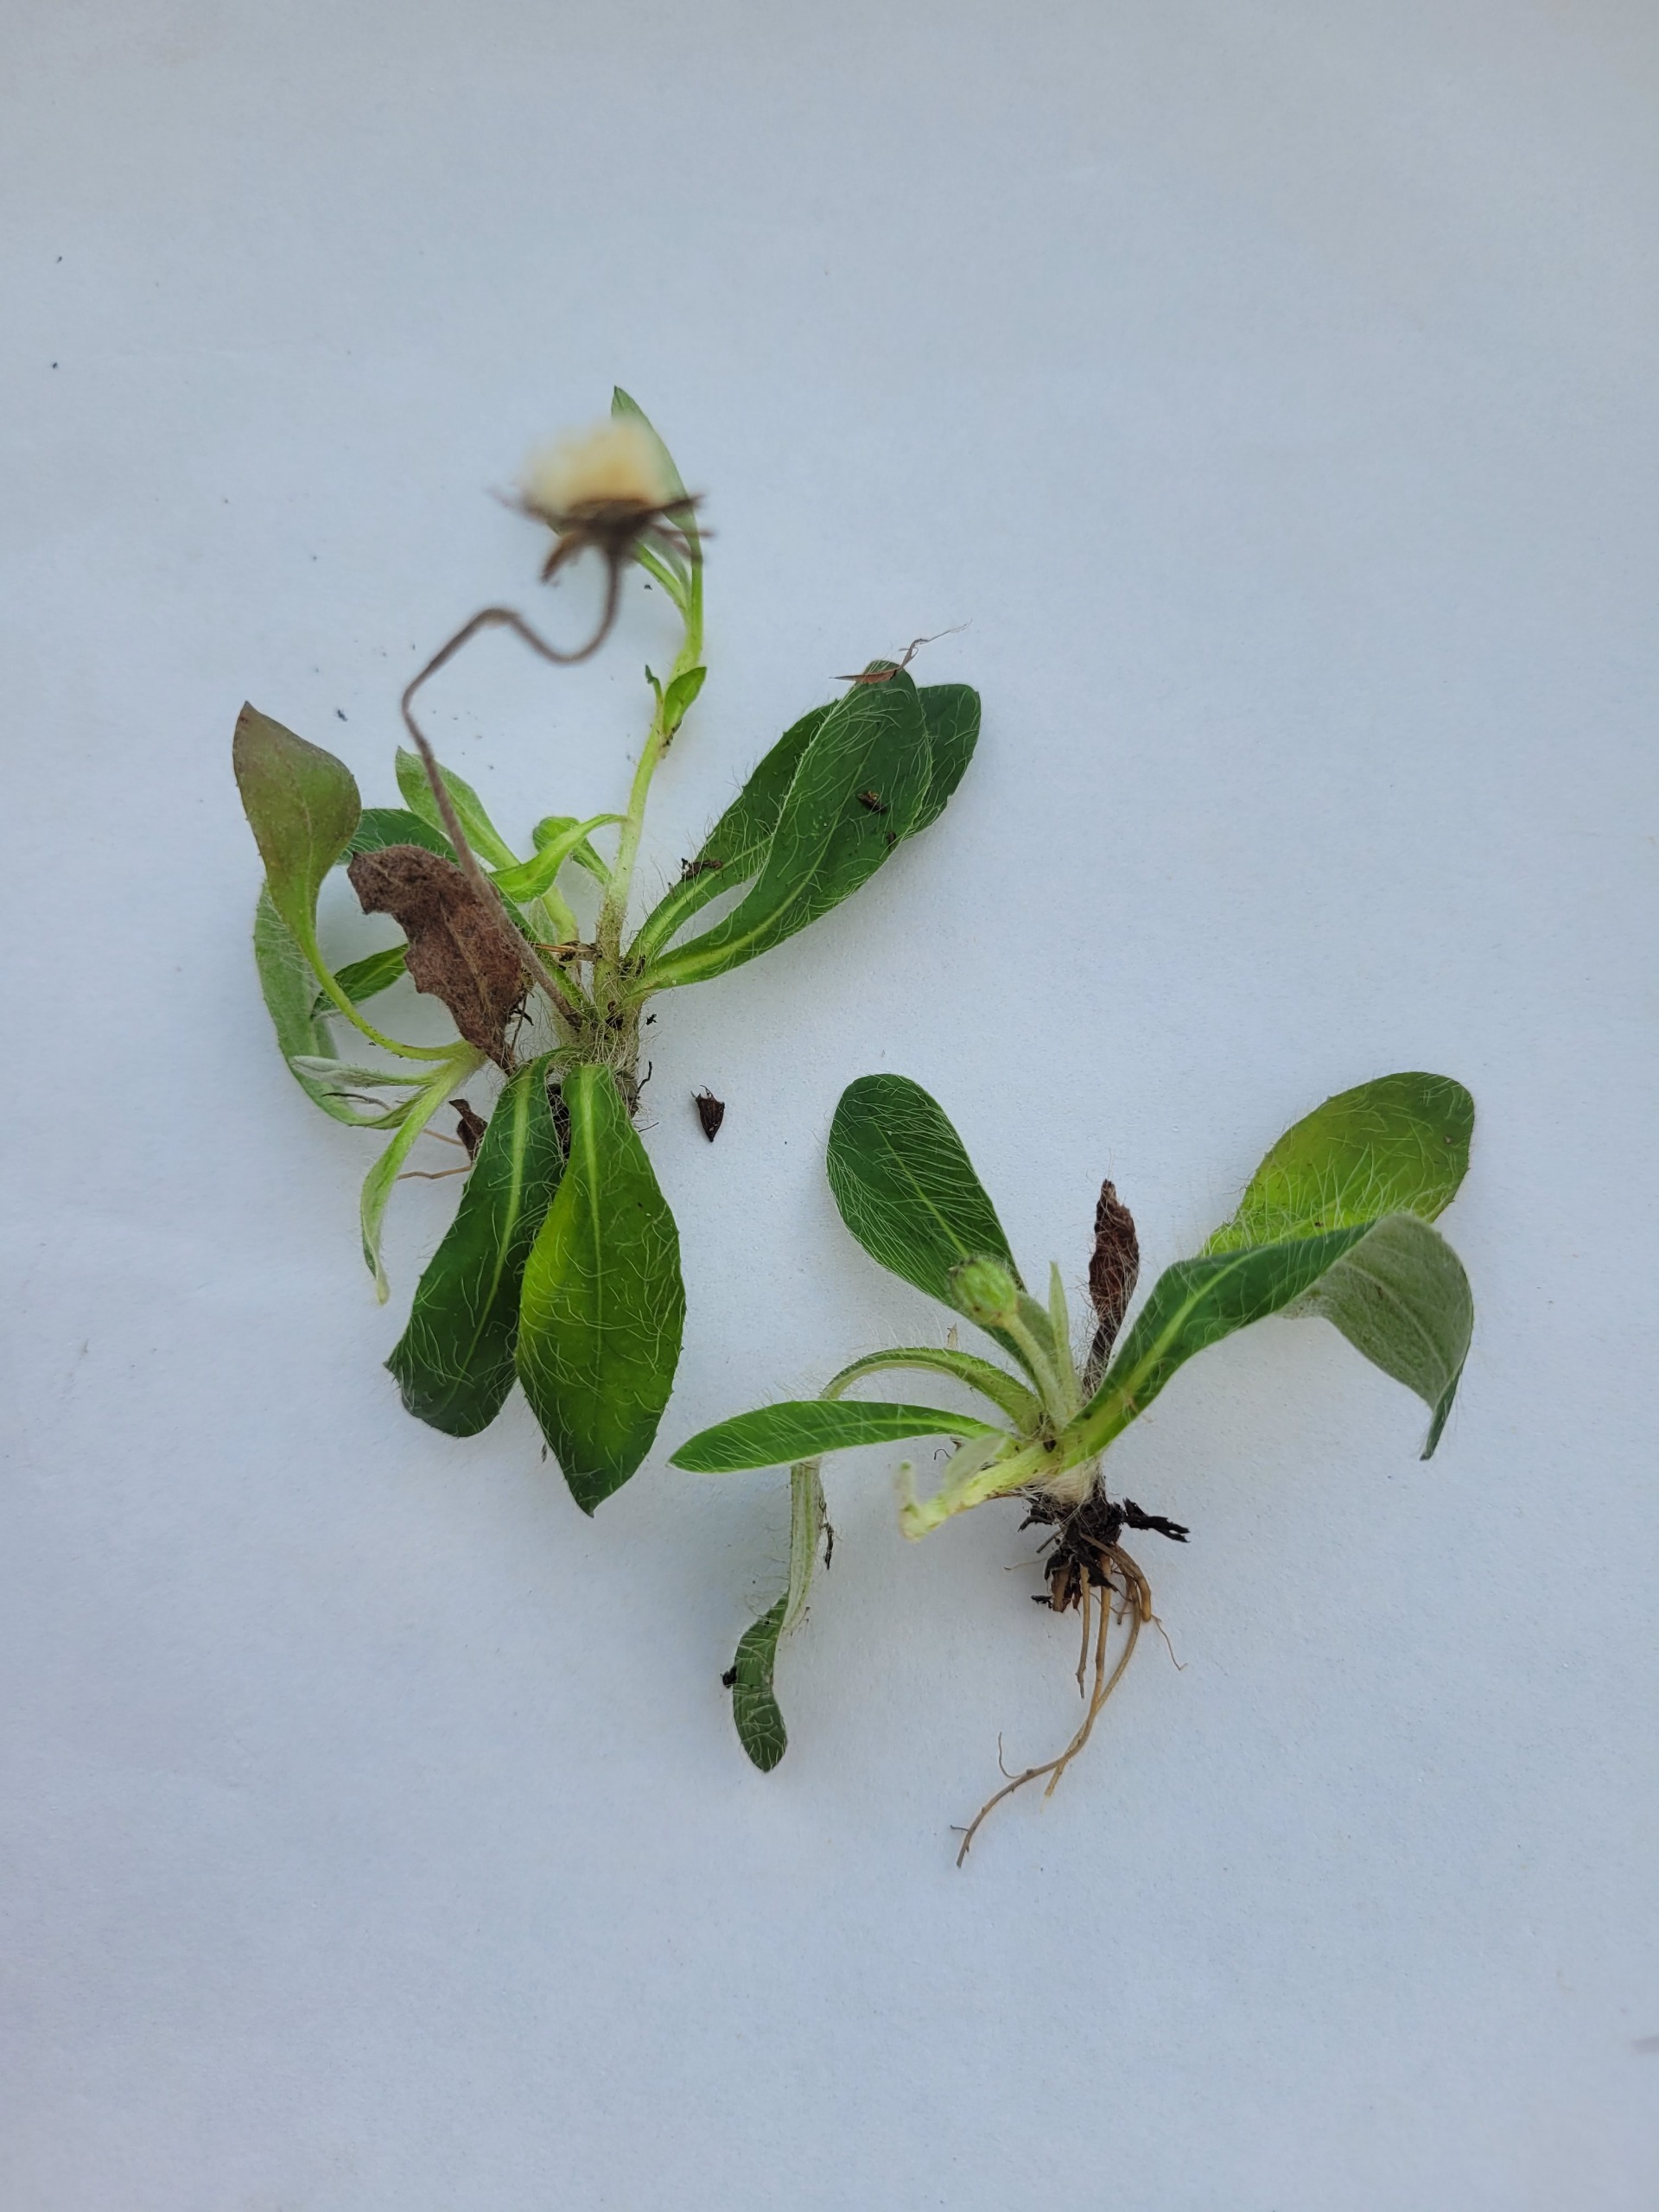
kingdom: Plantae
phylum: Tracheophyta
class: Magnoliopsida
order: Asterales
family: Asteraceae
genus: Pilosella
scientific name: Pilosella officinarum
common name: Håret høgeurt
